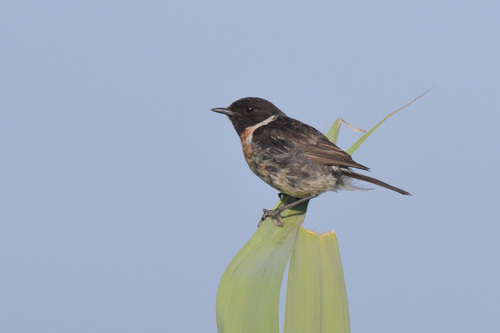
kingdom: Animalia
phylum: Chordata
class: Aves
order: Passeriformes
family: Muscicapidae
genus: Saxicola
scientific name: Saxicola rubicola
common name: European stonechat
